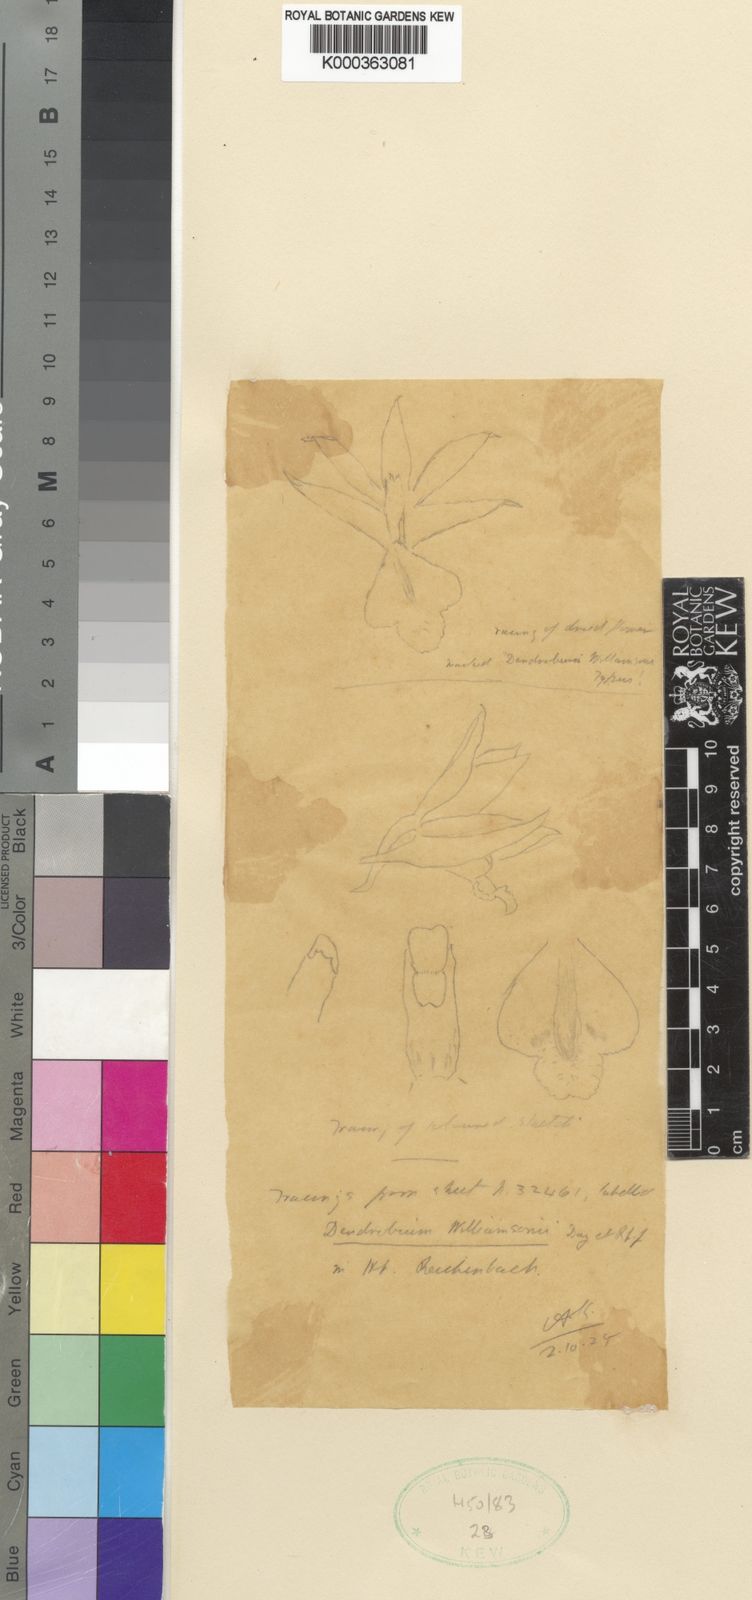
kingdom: Plantae
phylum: Tracheophyta
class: Liliopsida
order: Asparagales
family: Orchidaceae
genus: Dendrobium
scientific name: Dendrobium williamsonii
